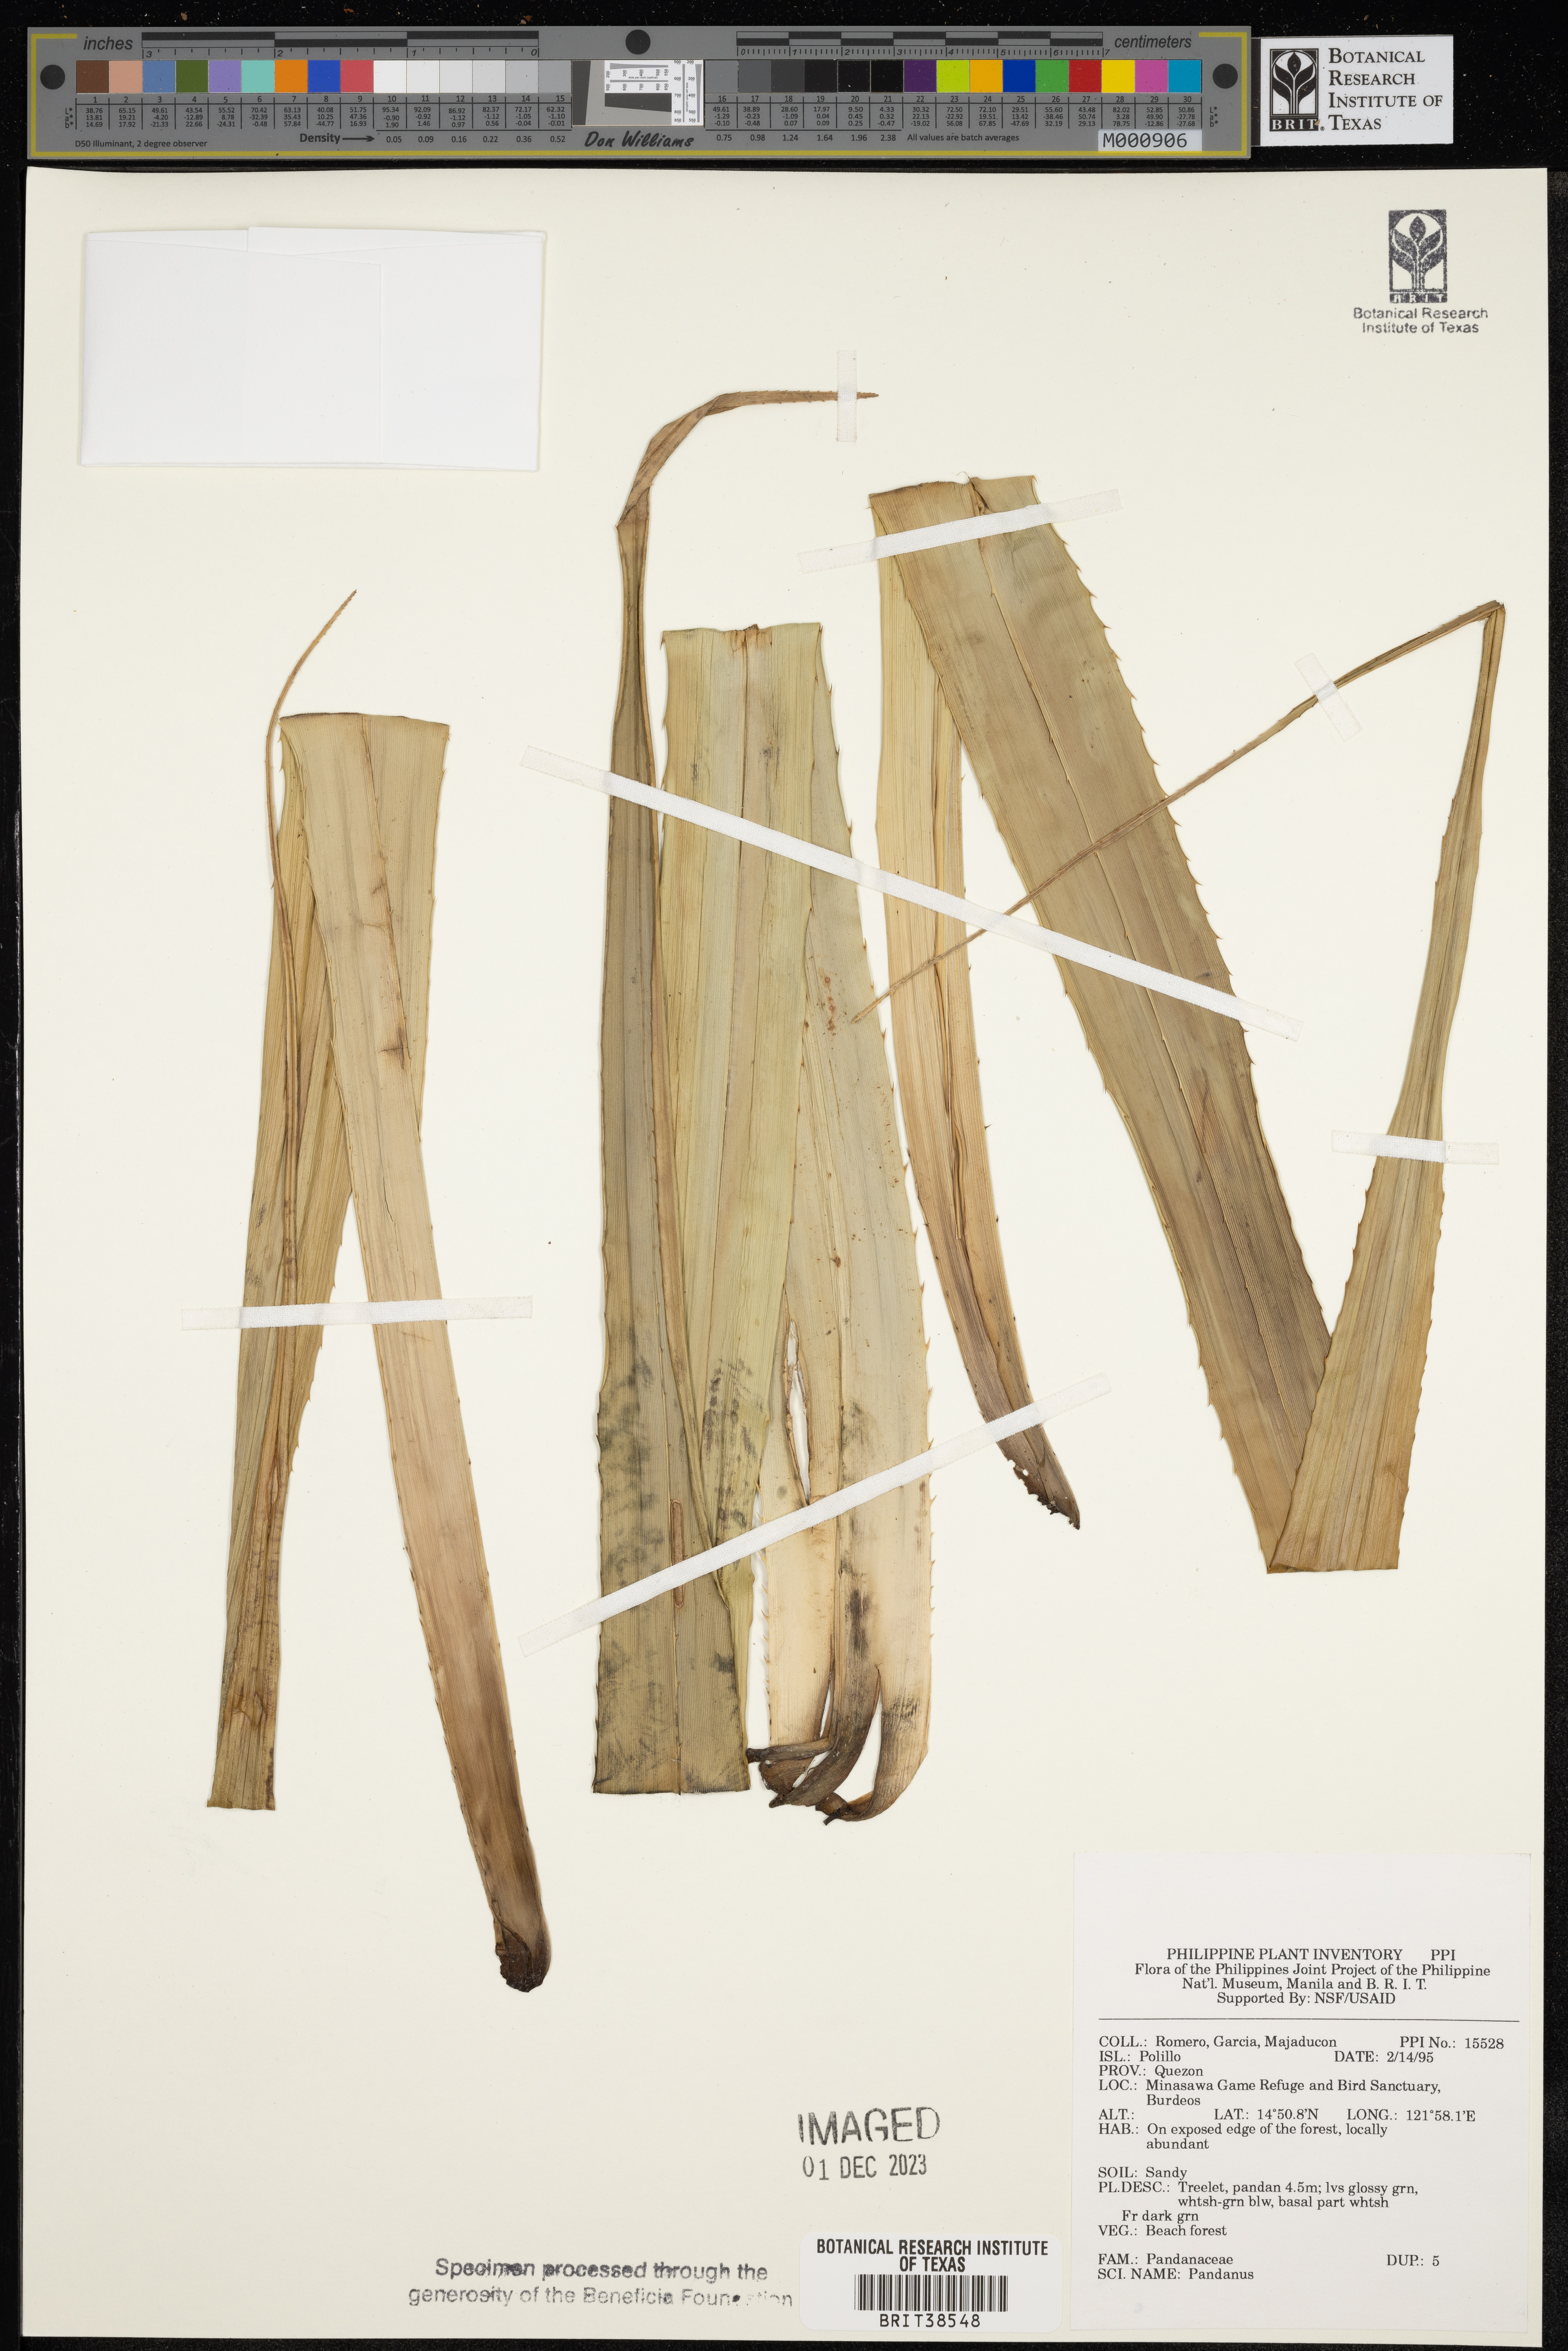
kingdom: Plantae
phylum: Tracheophyta
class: Liliopsida
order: Pandanales
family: Pandanaceae
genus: Pandanus
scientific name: Pandanus
